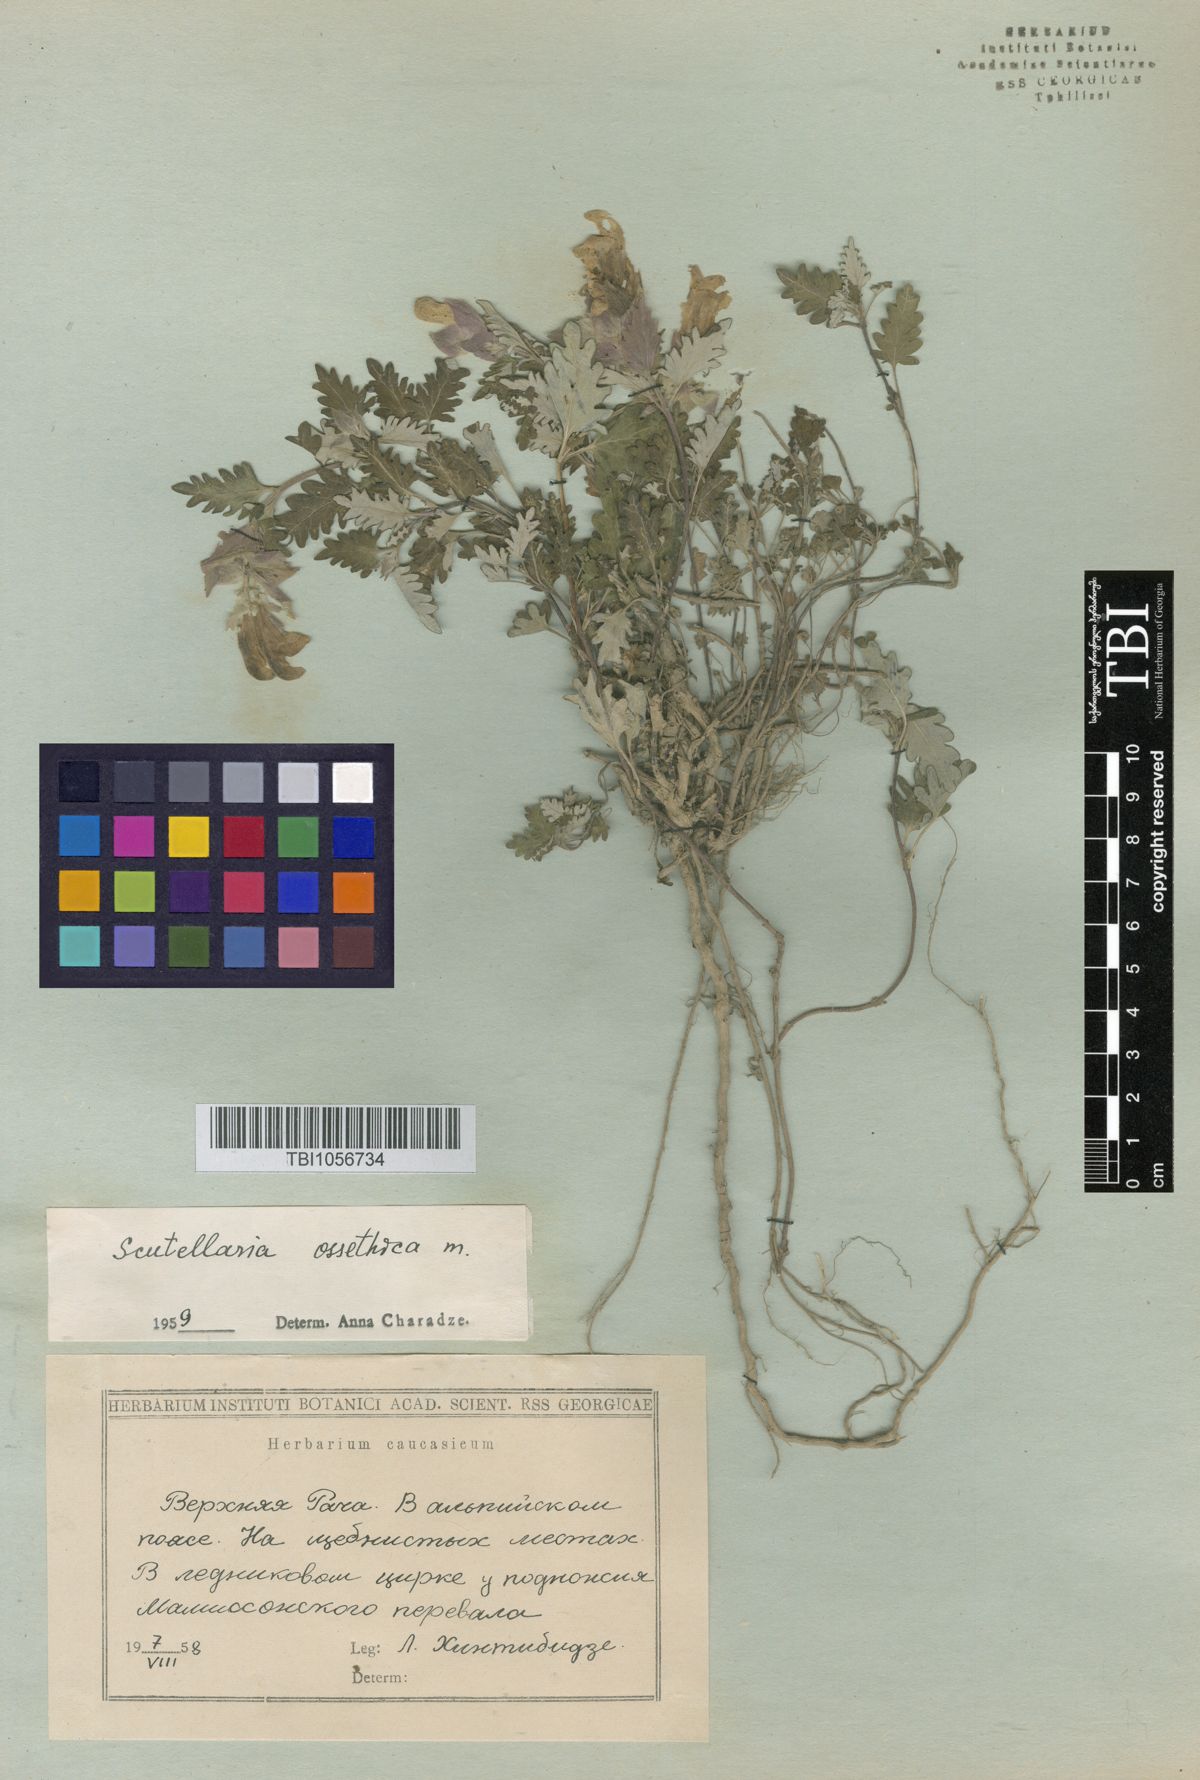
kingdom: Plantae
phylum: Tracheophyta
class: Magnoliopsida
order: Lamiales
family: Lamiaceae
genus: Scutellaria
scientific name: Scutellaria ossethica
